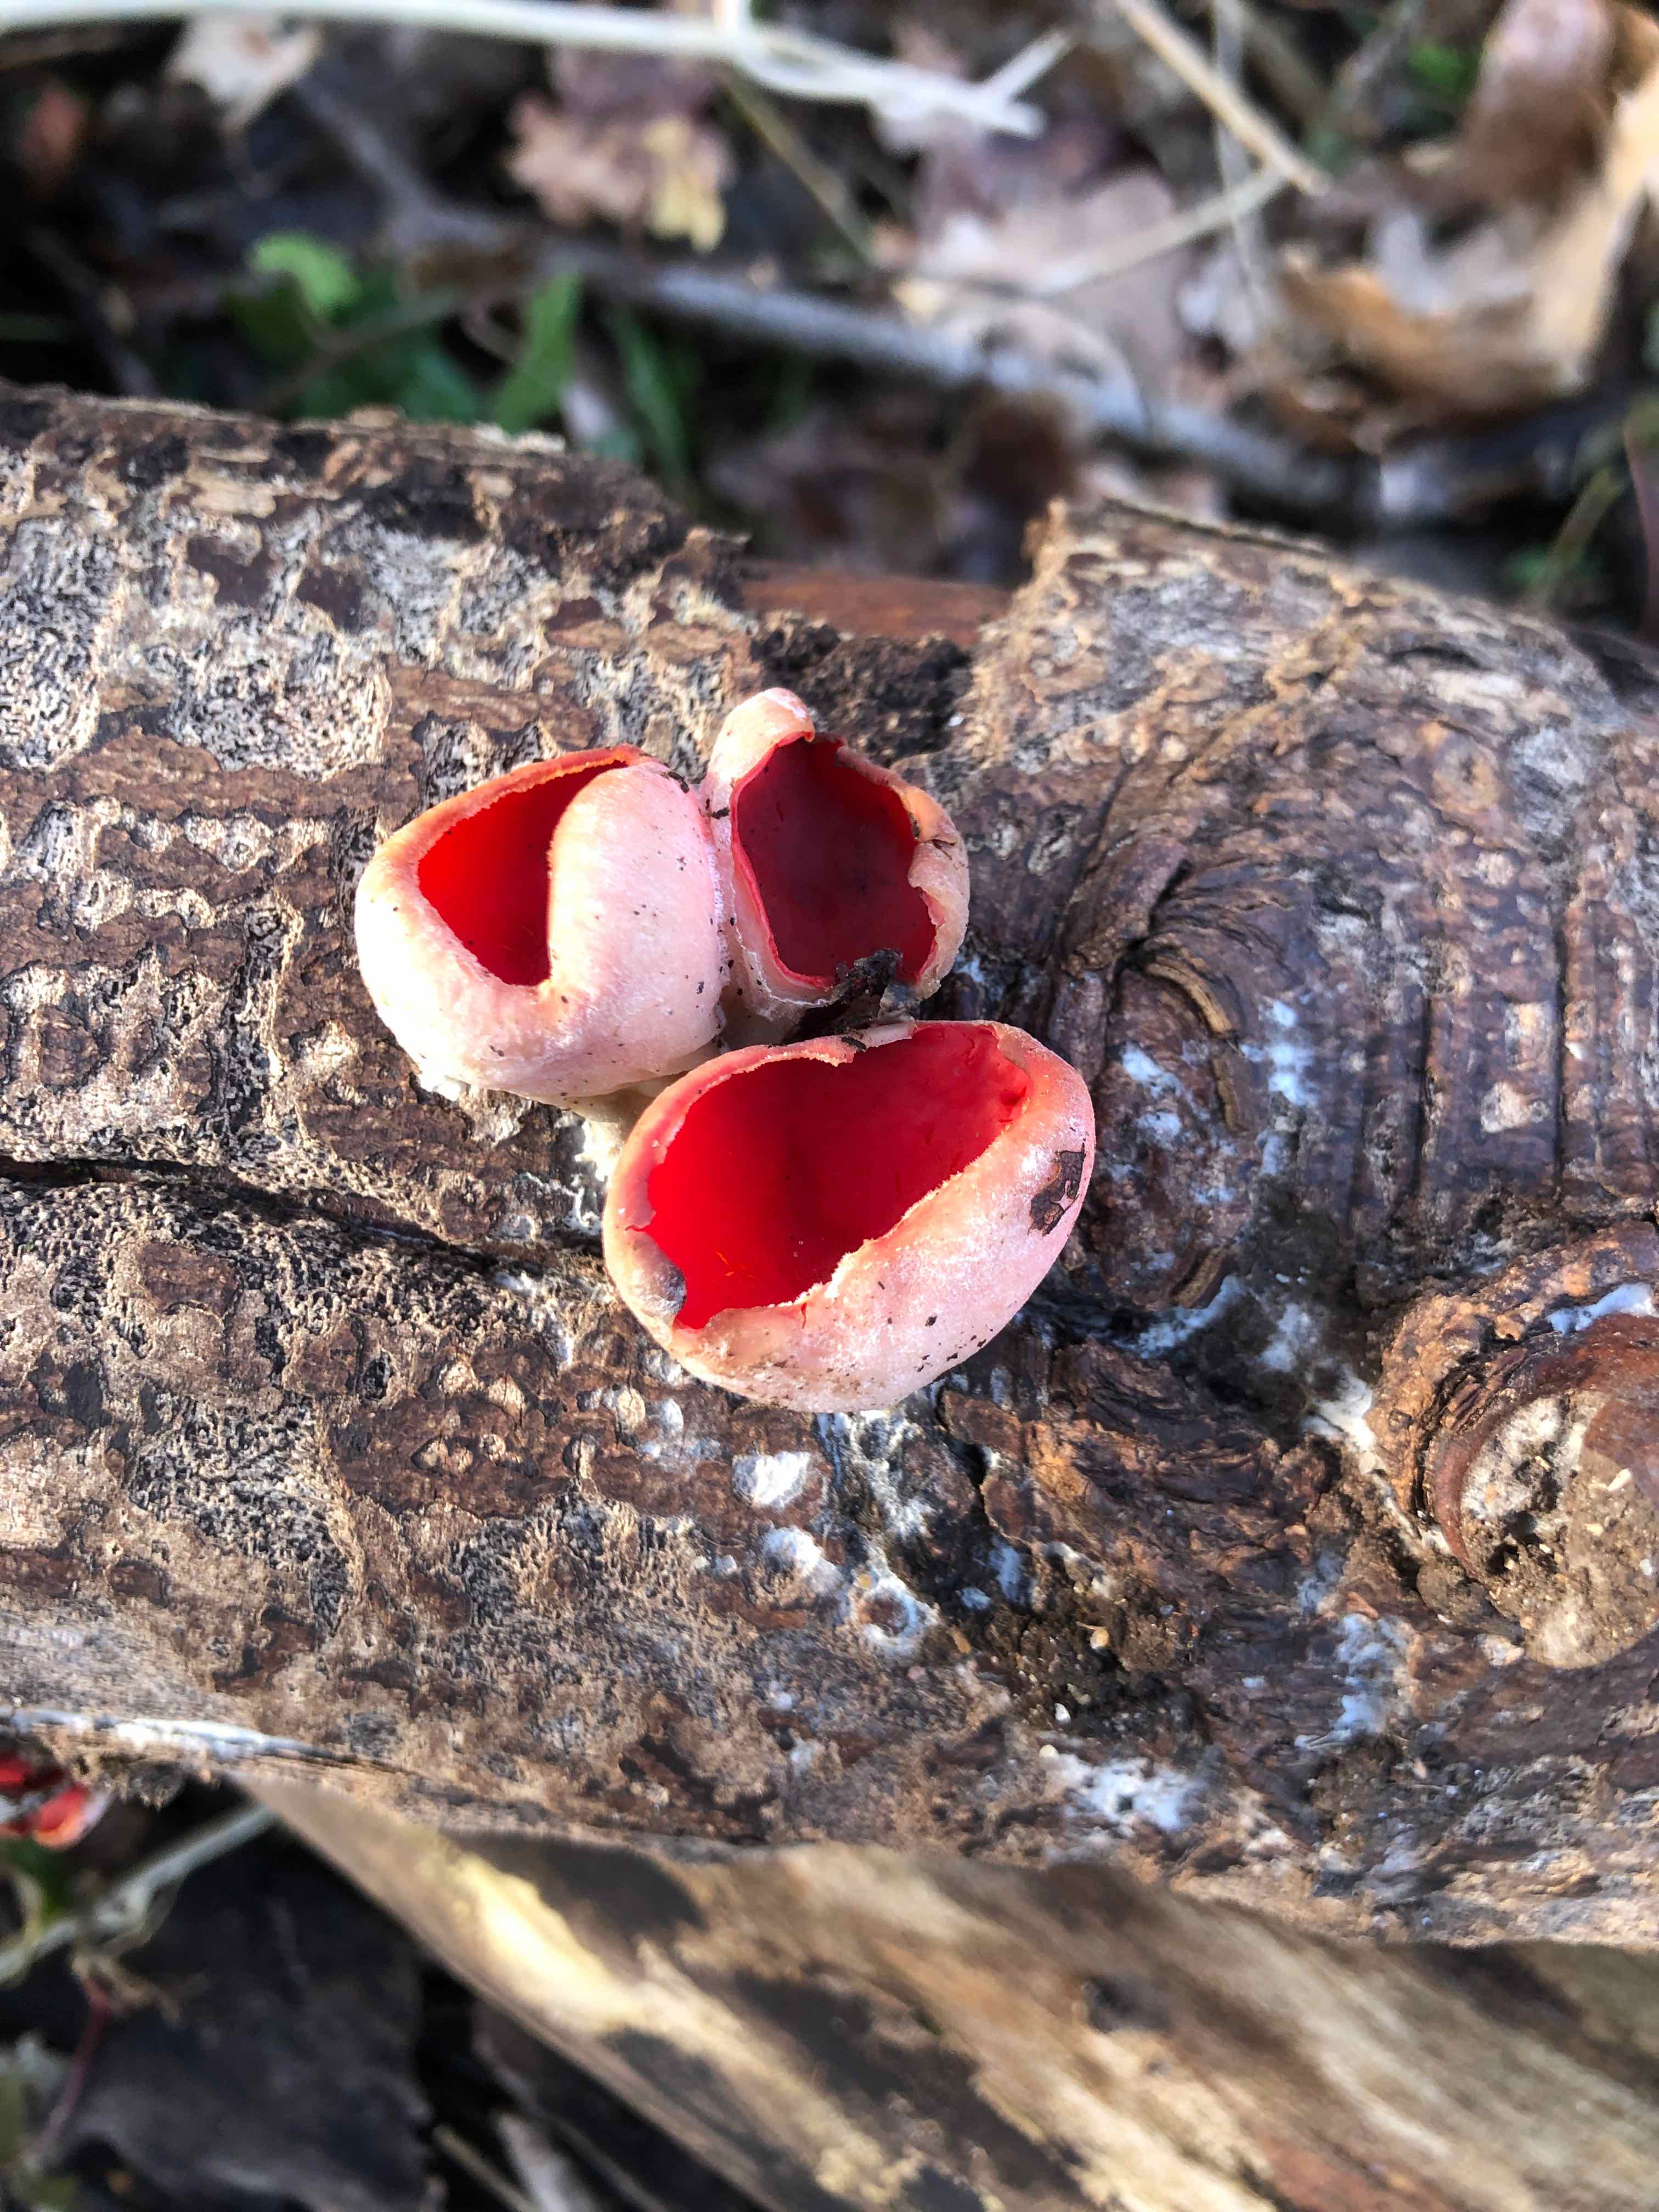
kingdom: Fungi
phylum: Ascomycota
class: Pezizomycetes
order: Pezizales
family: Sarcoscyphaceae
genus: Sarcoscypha
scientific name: Sarcoscypha austriaca
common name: krølhåret pragtbæger
